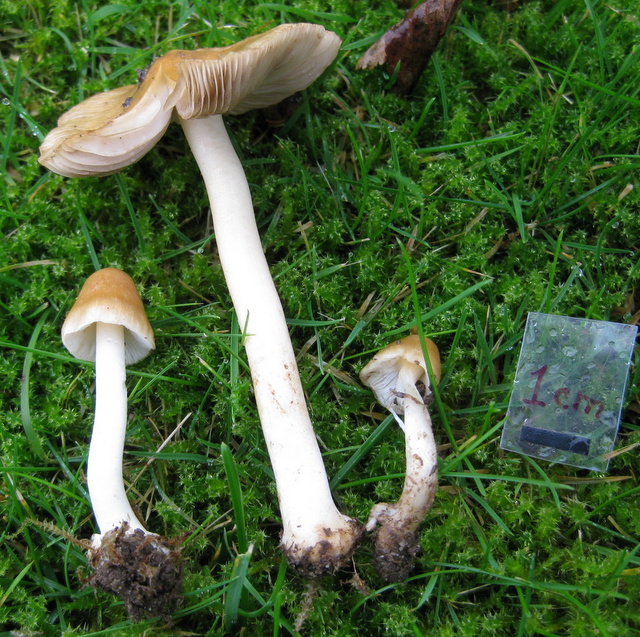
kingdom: Fungi
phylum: Basidiomycota
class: Agaricomycetes
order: Agaricales
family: Inocybaceae
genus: Inocybe
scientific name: Inocybe mixtilis
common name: randknoldet trævlhat
